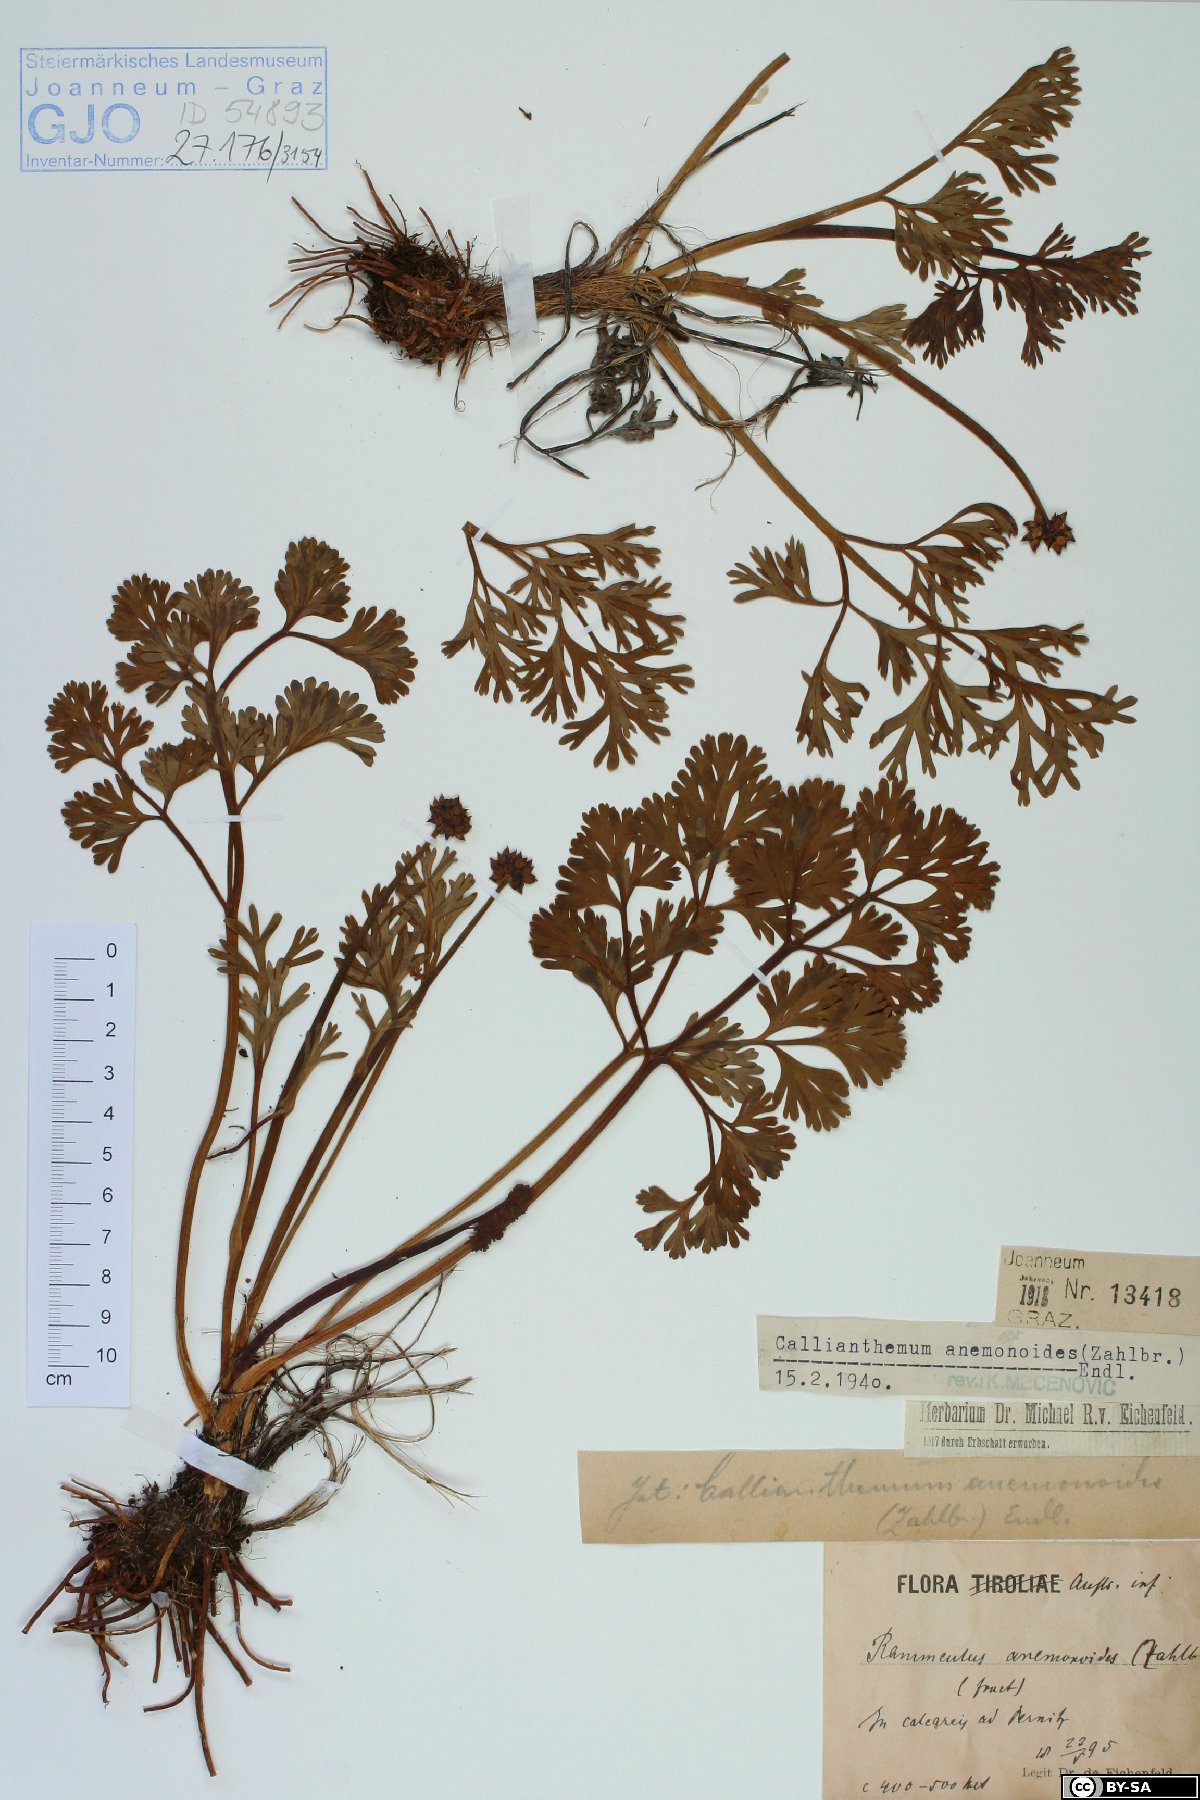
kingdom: Plantae
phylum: Tracheophyta
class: Magnoliopsida
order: Ranunculales
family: Ranunculaceae
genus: Callianthemum
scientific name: Callianthemum anemonoides
